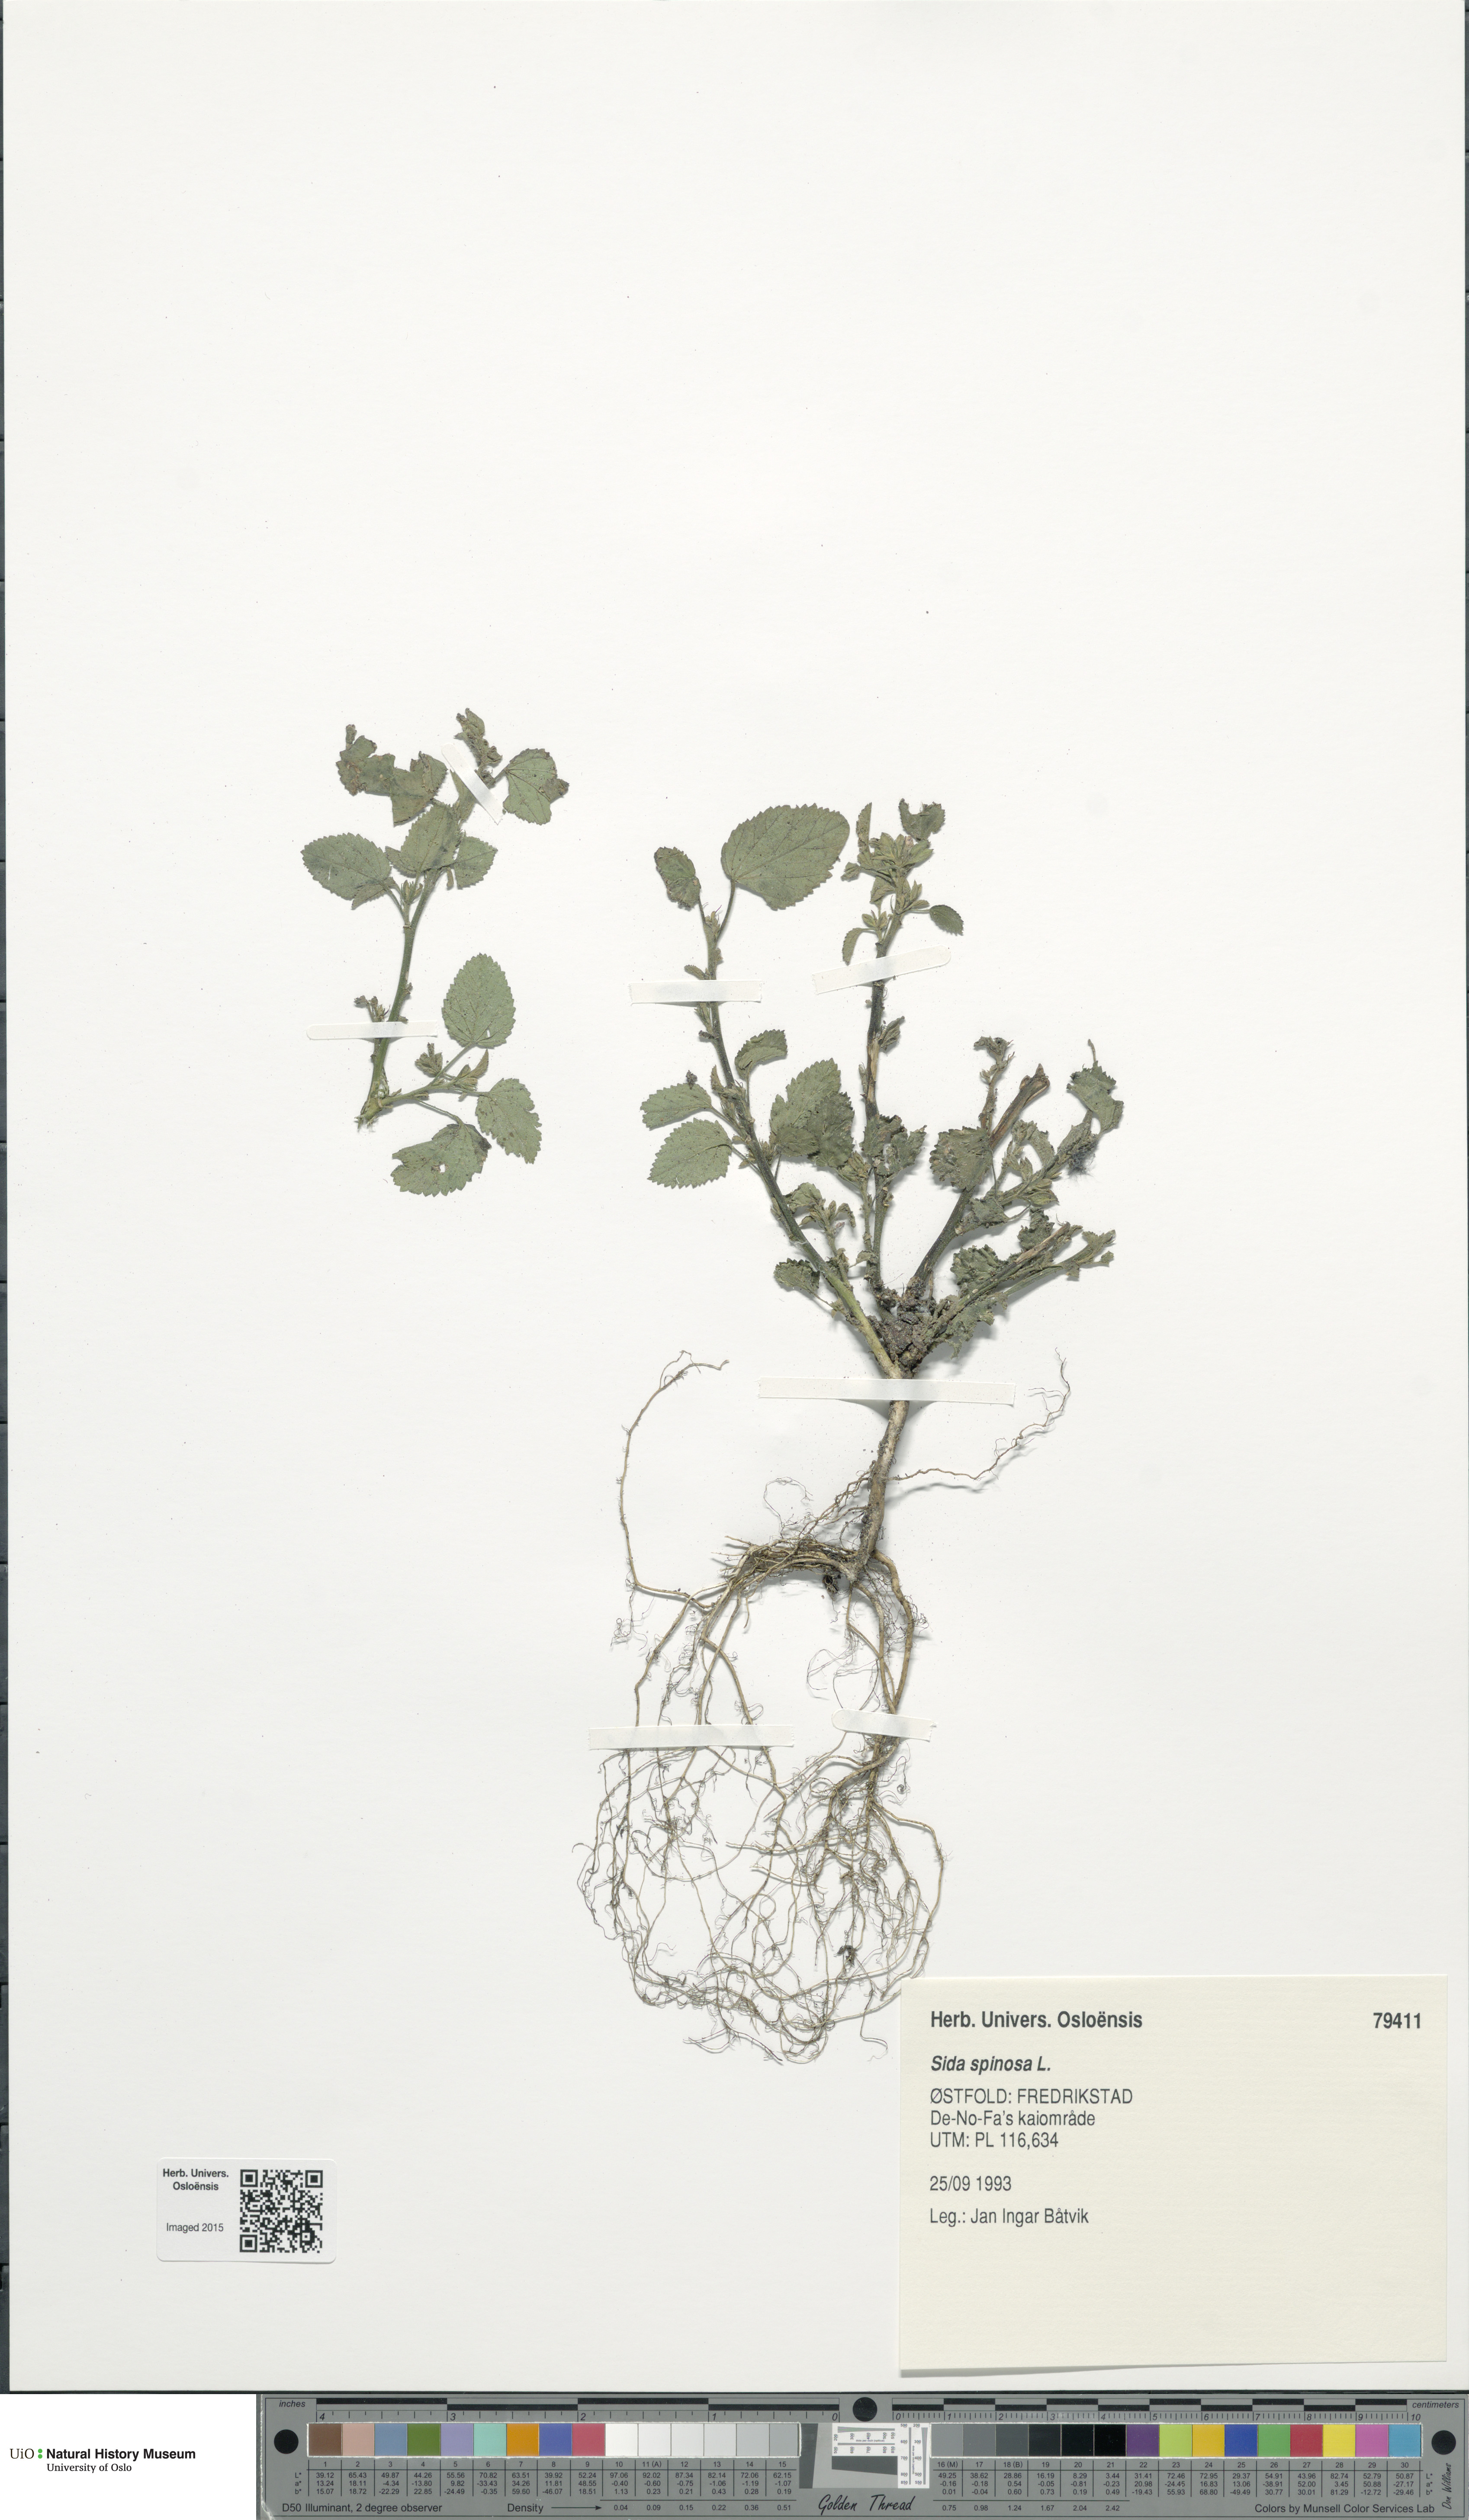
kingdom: Plantae
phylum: Tracheophyta
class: Magnoliopsida
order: Malvales
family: Malvaceae
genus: Sida
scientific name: Sida spinosa
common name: Prickly fanpetals
